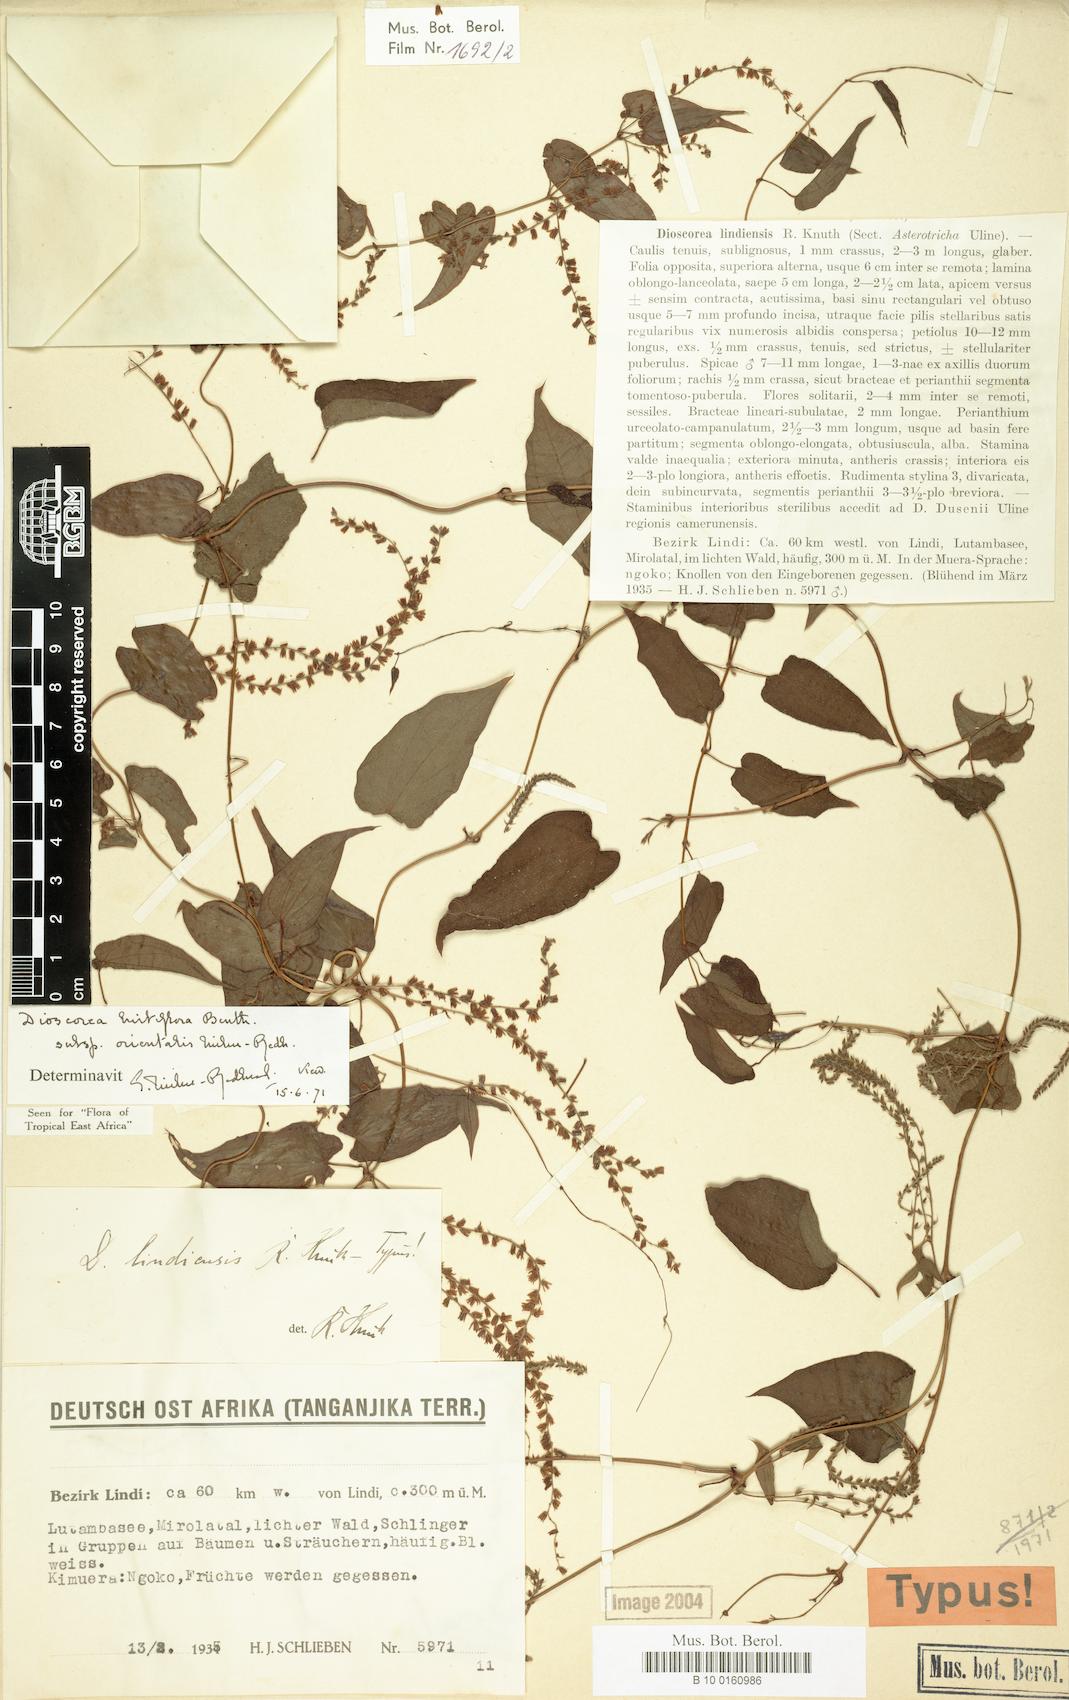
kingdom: Plantae
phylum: Tracheophyta
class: Liliopsida
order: Dioscoreales
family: Dioscoreaceae
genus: Dioscorea
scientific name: Dioscorea hirtiflora
